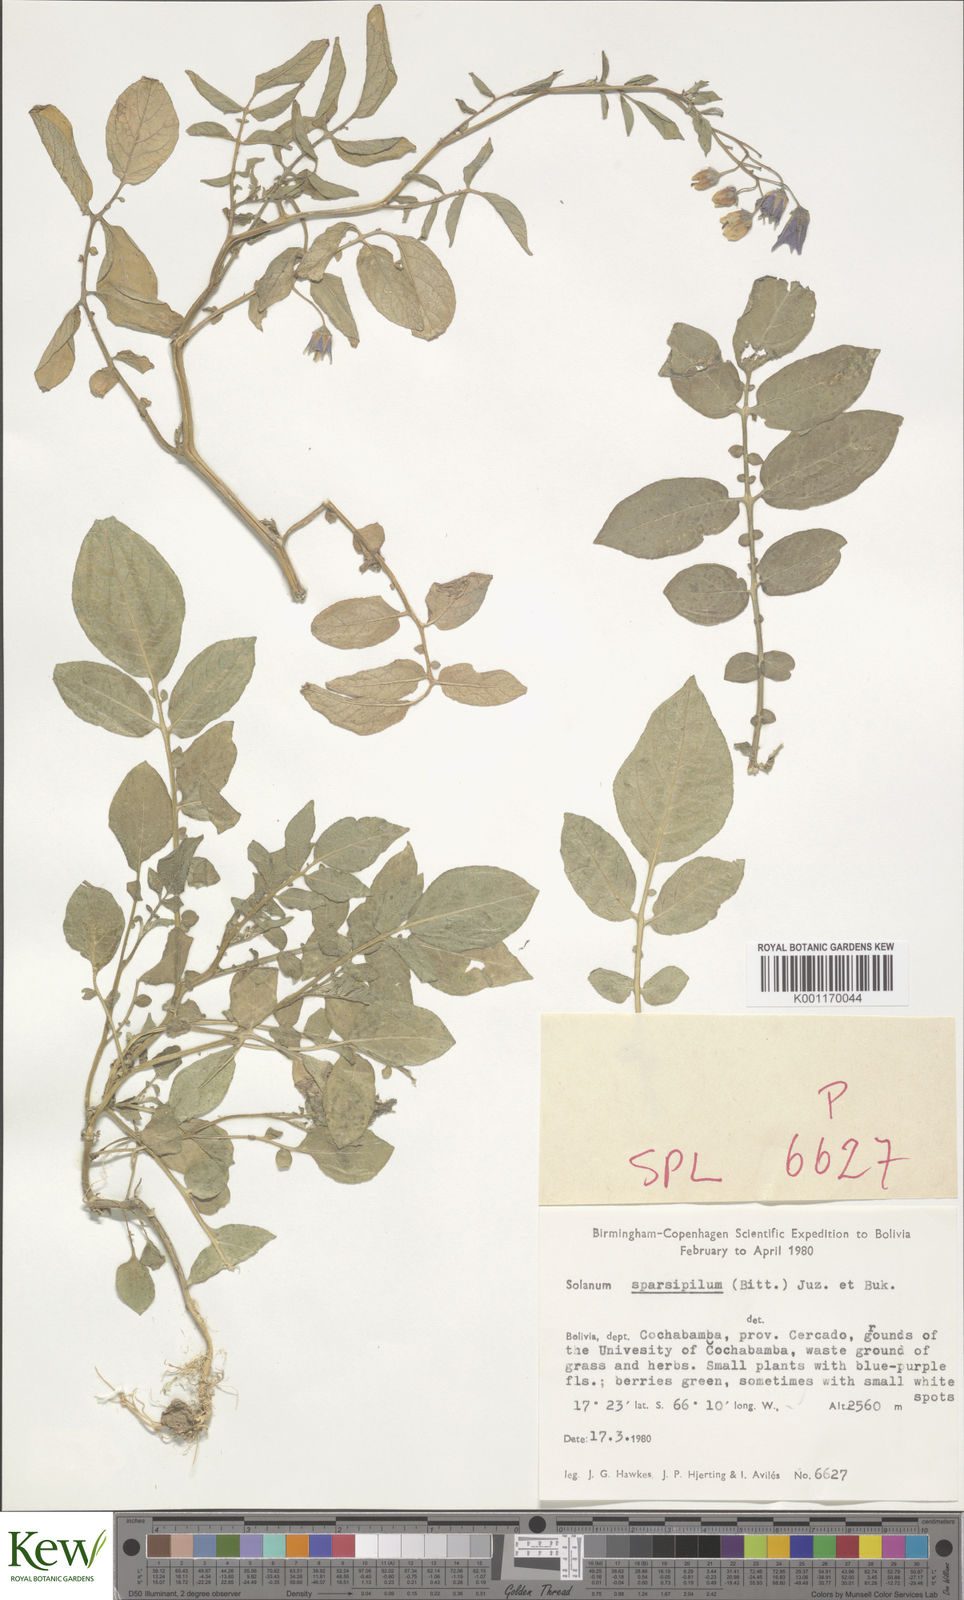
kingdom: Plantae
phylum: Tracheophyta
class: Magnoliopsida
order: Solanales
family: Solanaceae
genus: Solanum
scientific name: Solanum brevicaule
